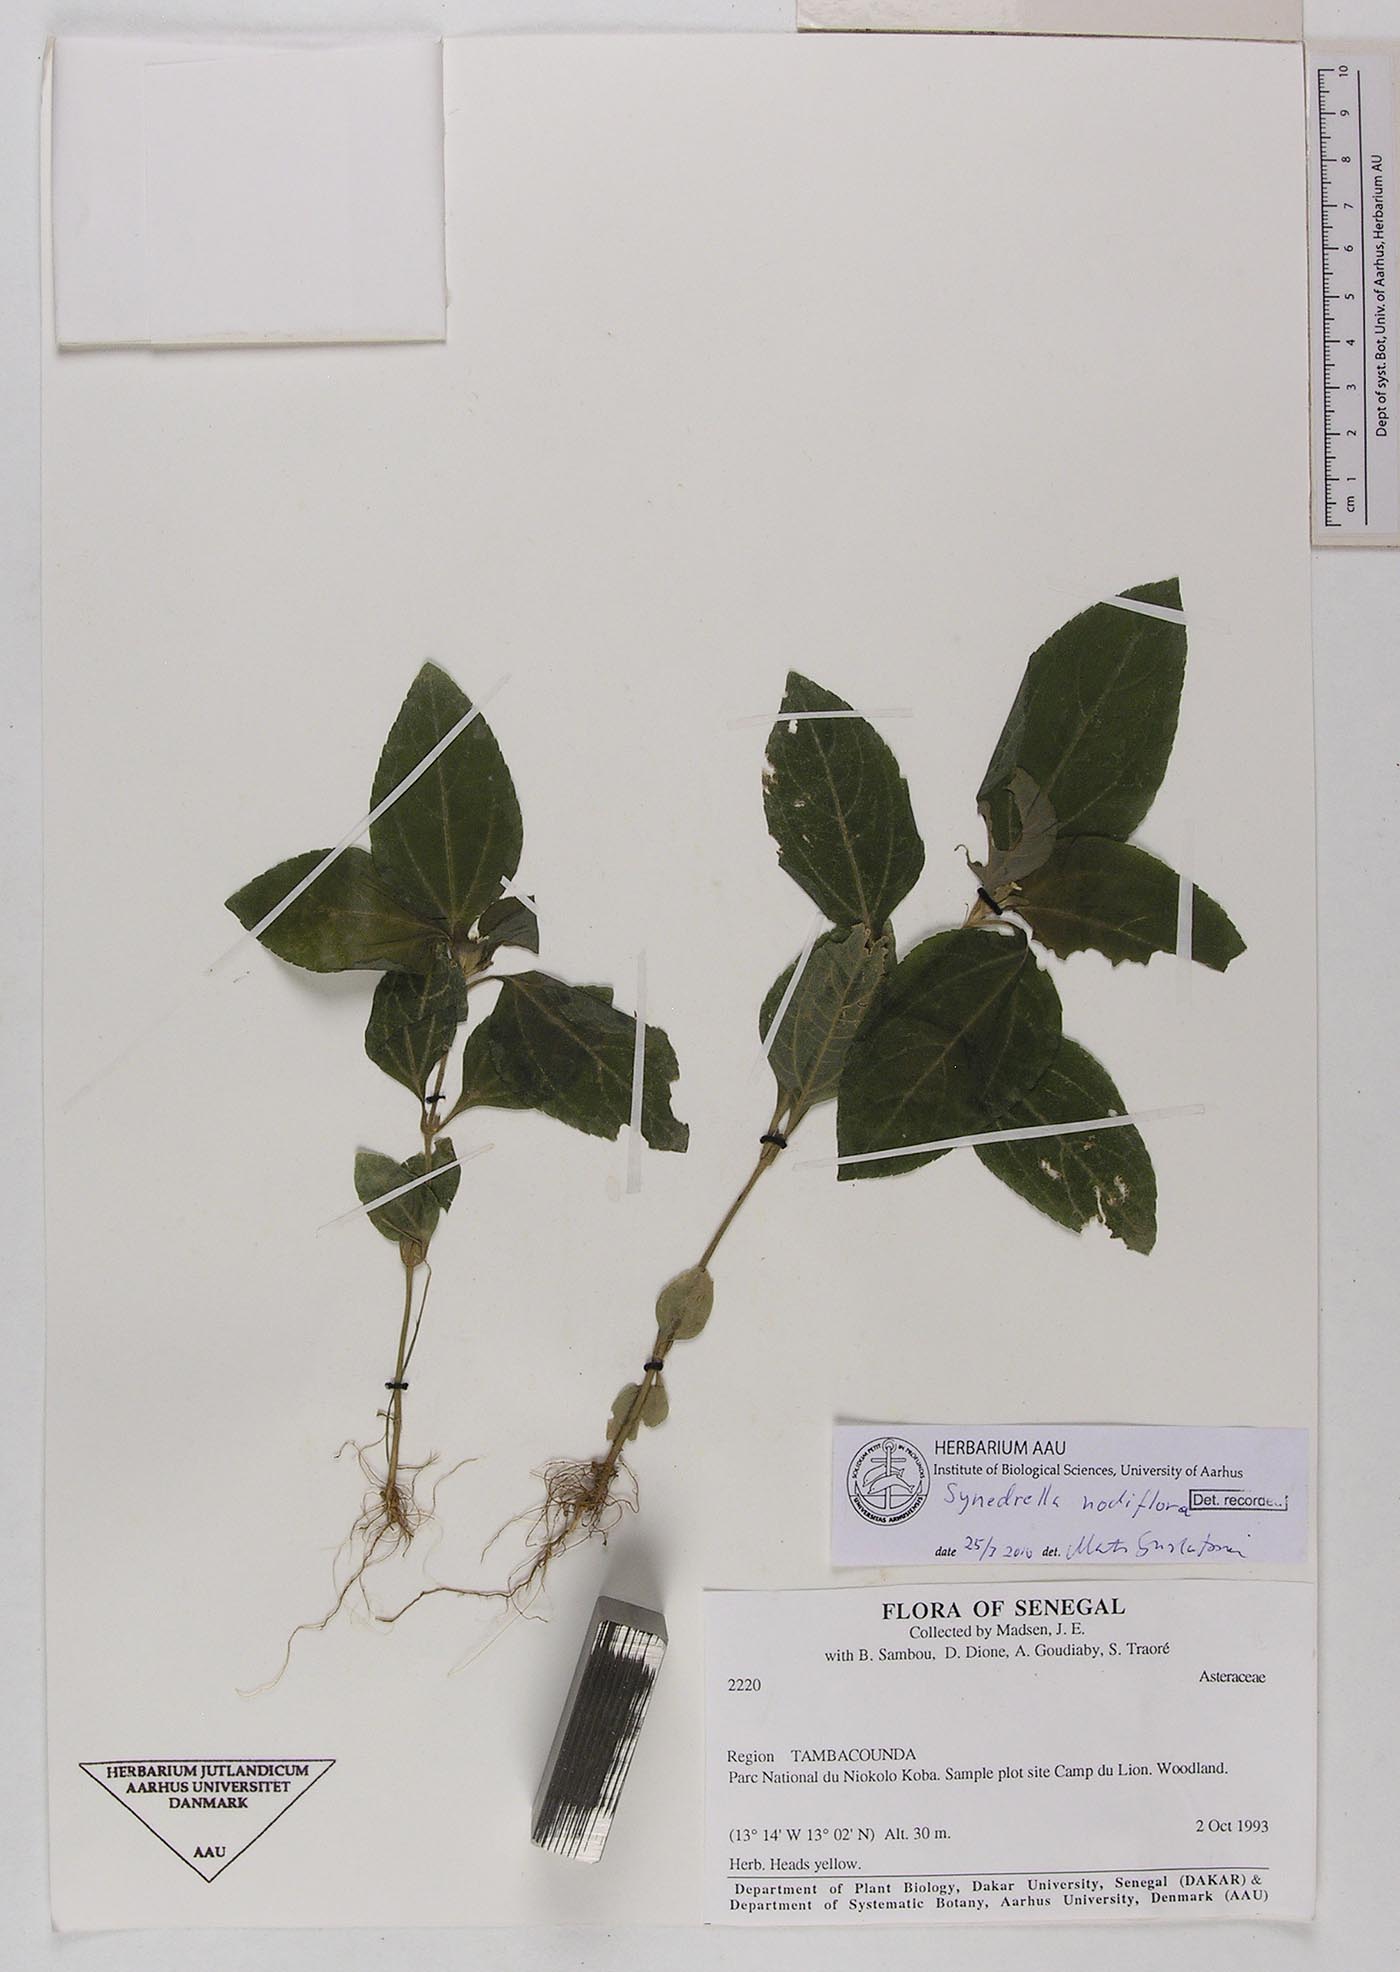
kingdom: Plantae
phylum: Tracheophyta
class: Magnoliopsida
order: Asterales
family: Asteraceae
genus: Synedrella
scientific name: Synedrella nodiflora
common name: Nodeweed
